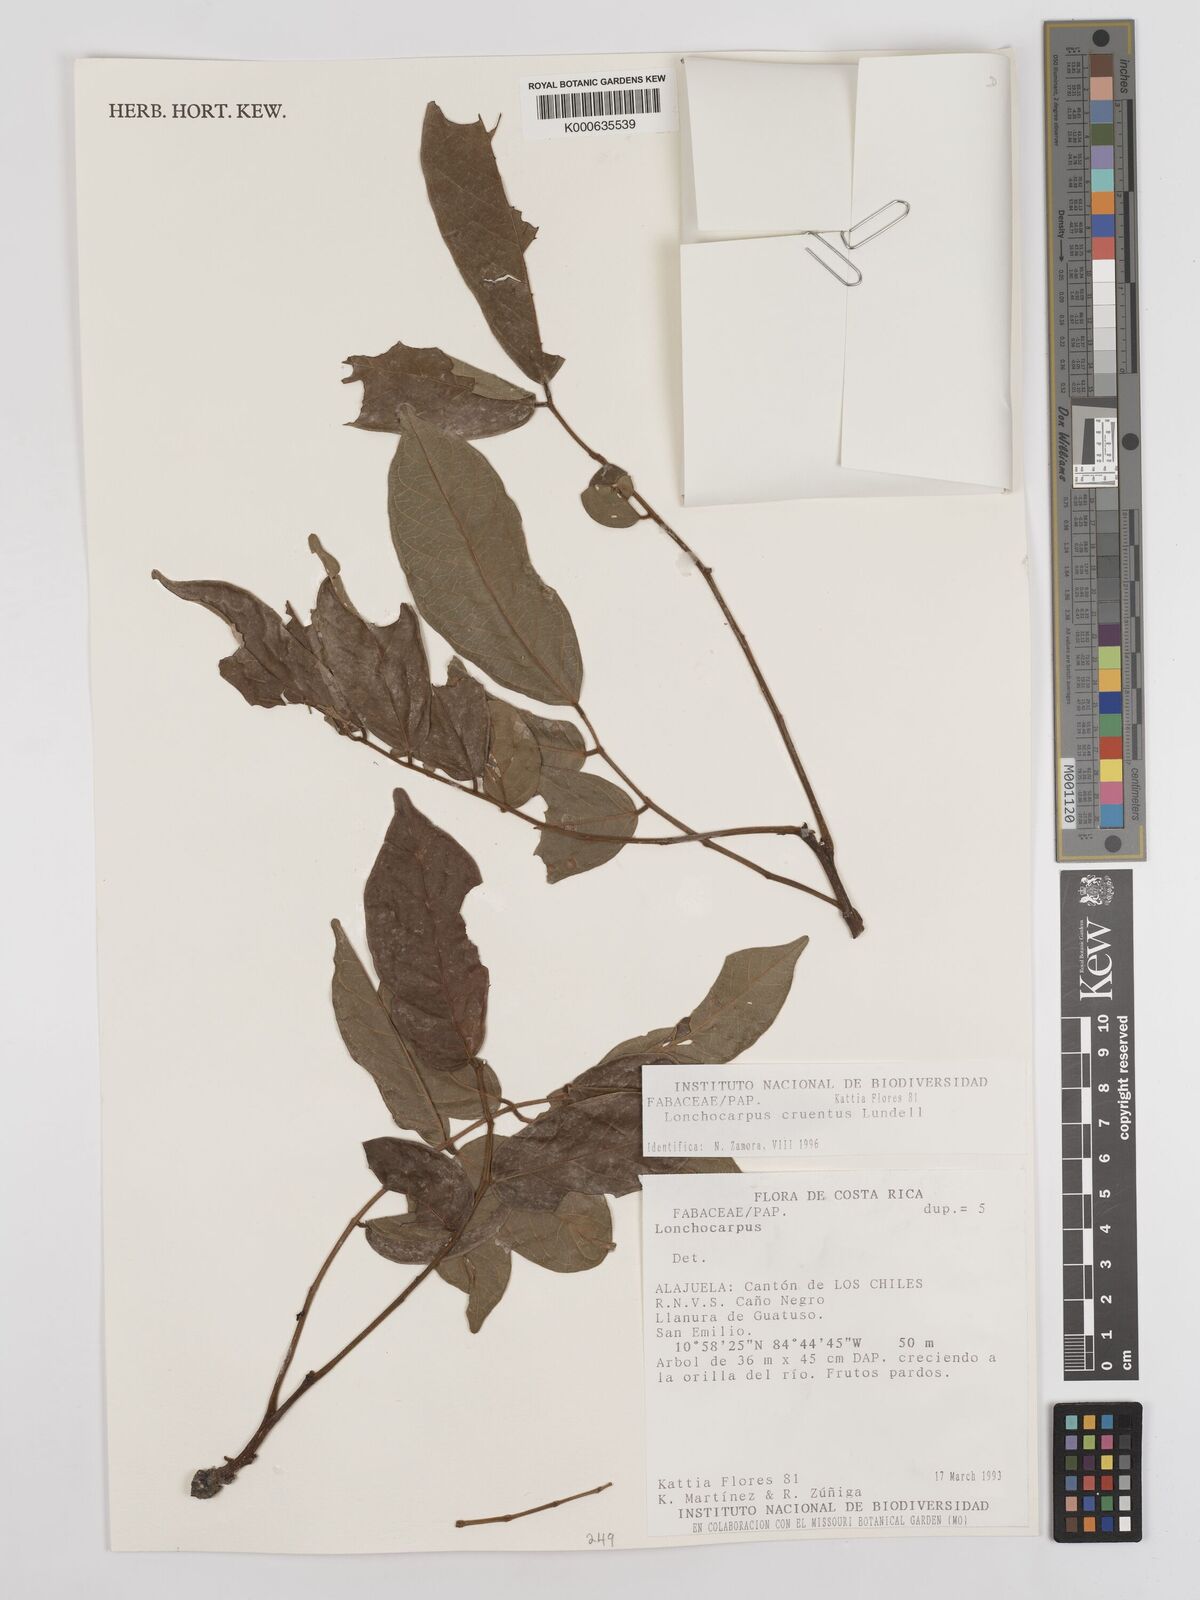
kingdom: Plantae
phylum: Tracheophyta
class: Magnoliopsida
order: Fabales
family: Fabaceae
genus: Lonchocarpus
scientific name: Lonchocarpus cruentus
